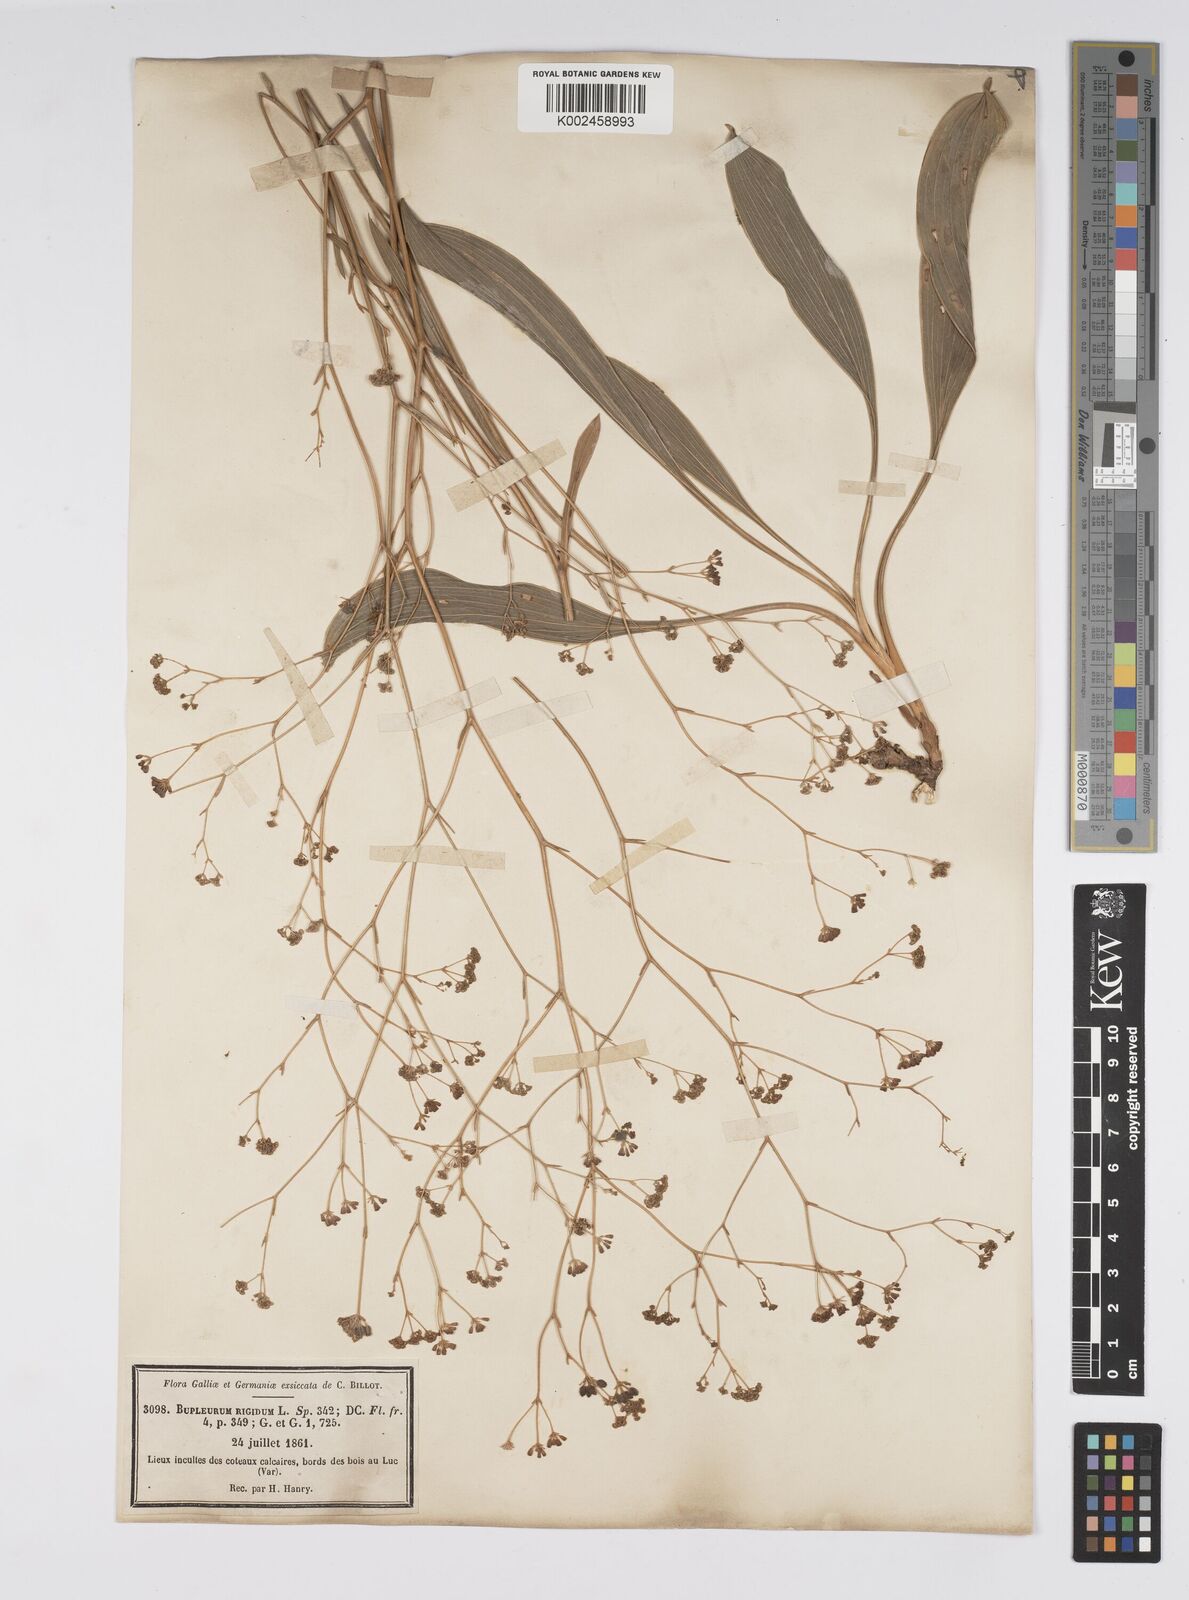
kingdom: Plantae
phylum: Tracheophyta
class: Magnoliopsida
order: Apiales
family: Apiaceae
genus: Bupleurum
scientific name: Bupleurum rigidum
